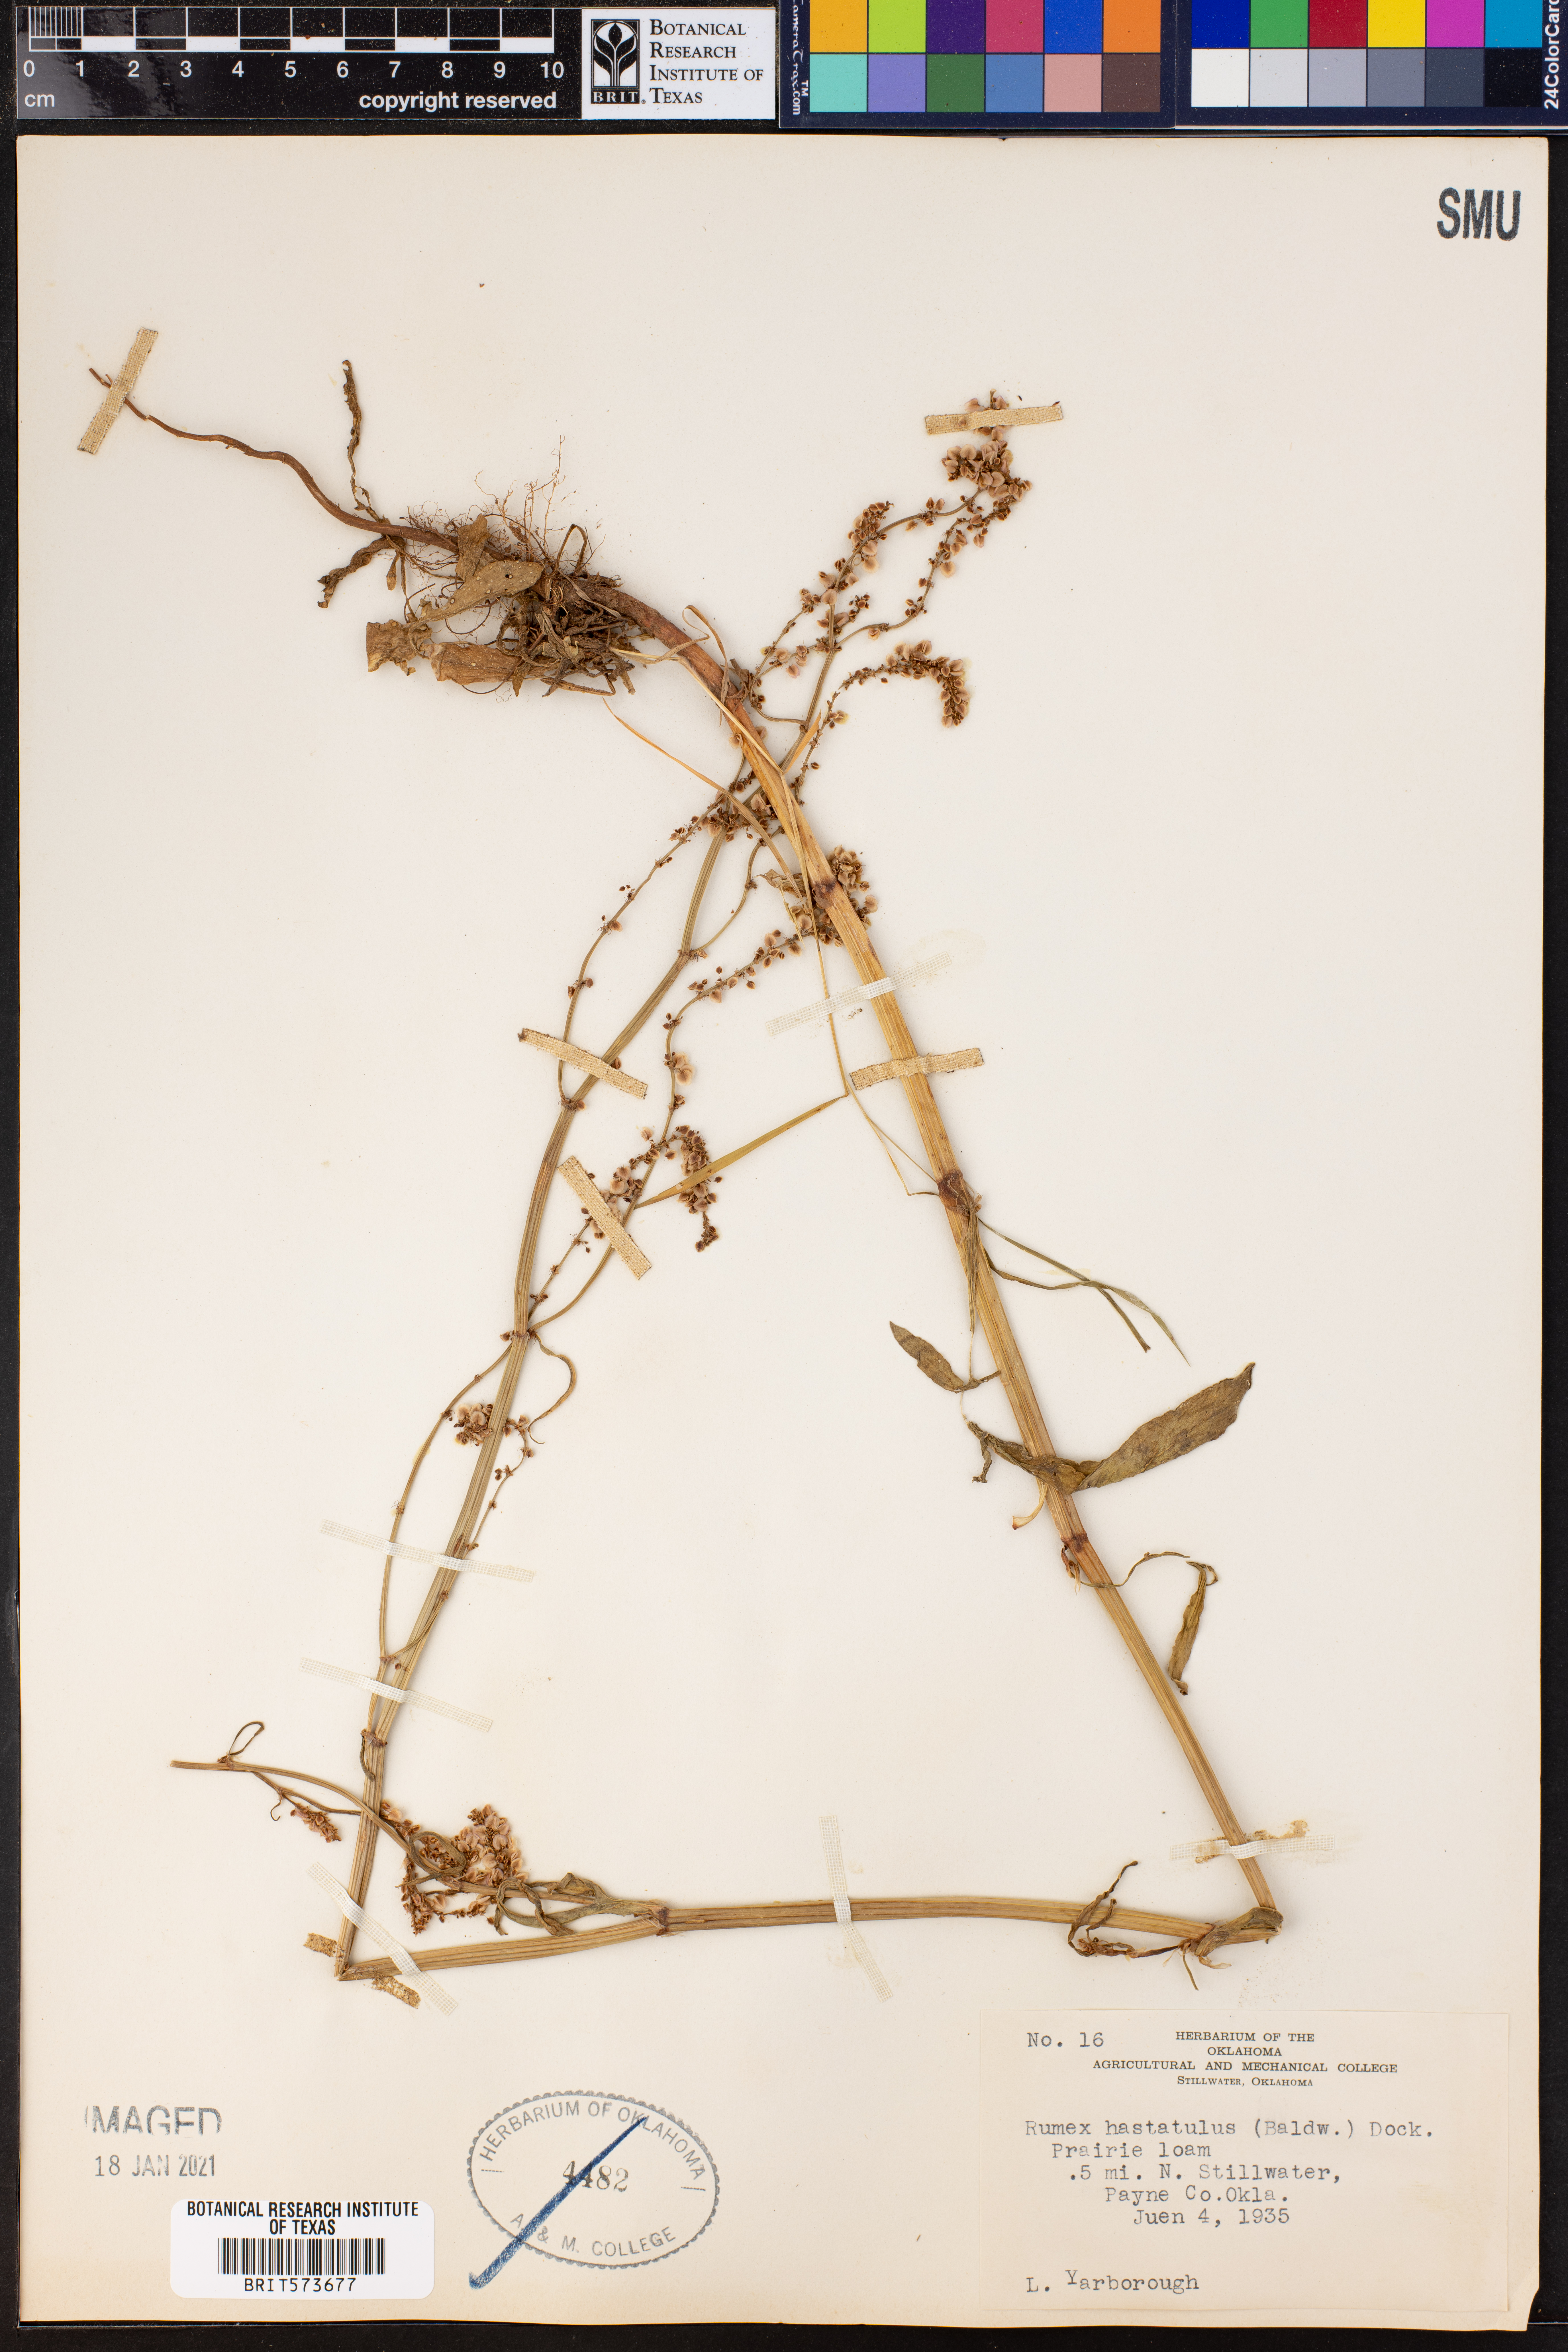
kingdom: Plantae
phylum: Tracheophyta
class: Magnoliopsida
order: Caryophyllales
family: Polygonaceae
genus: Rumex
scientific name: Rumex hastatulus
